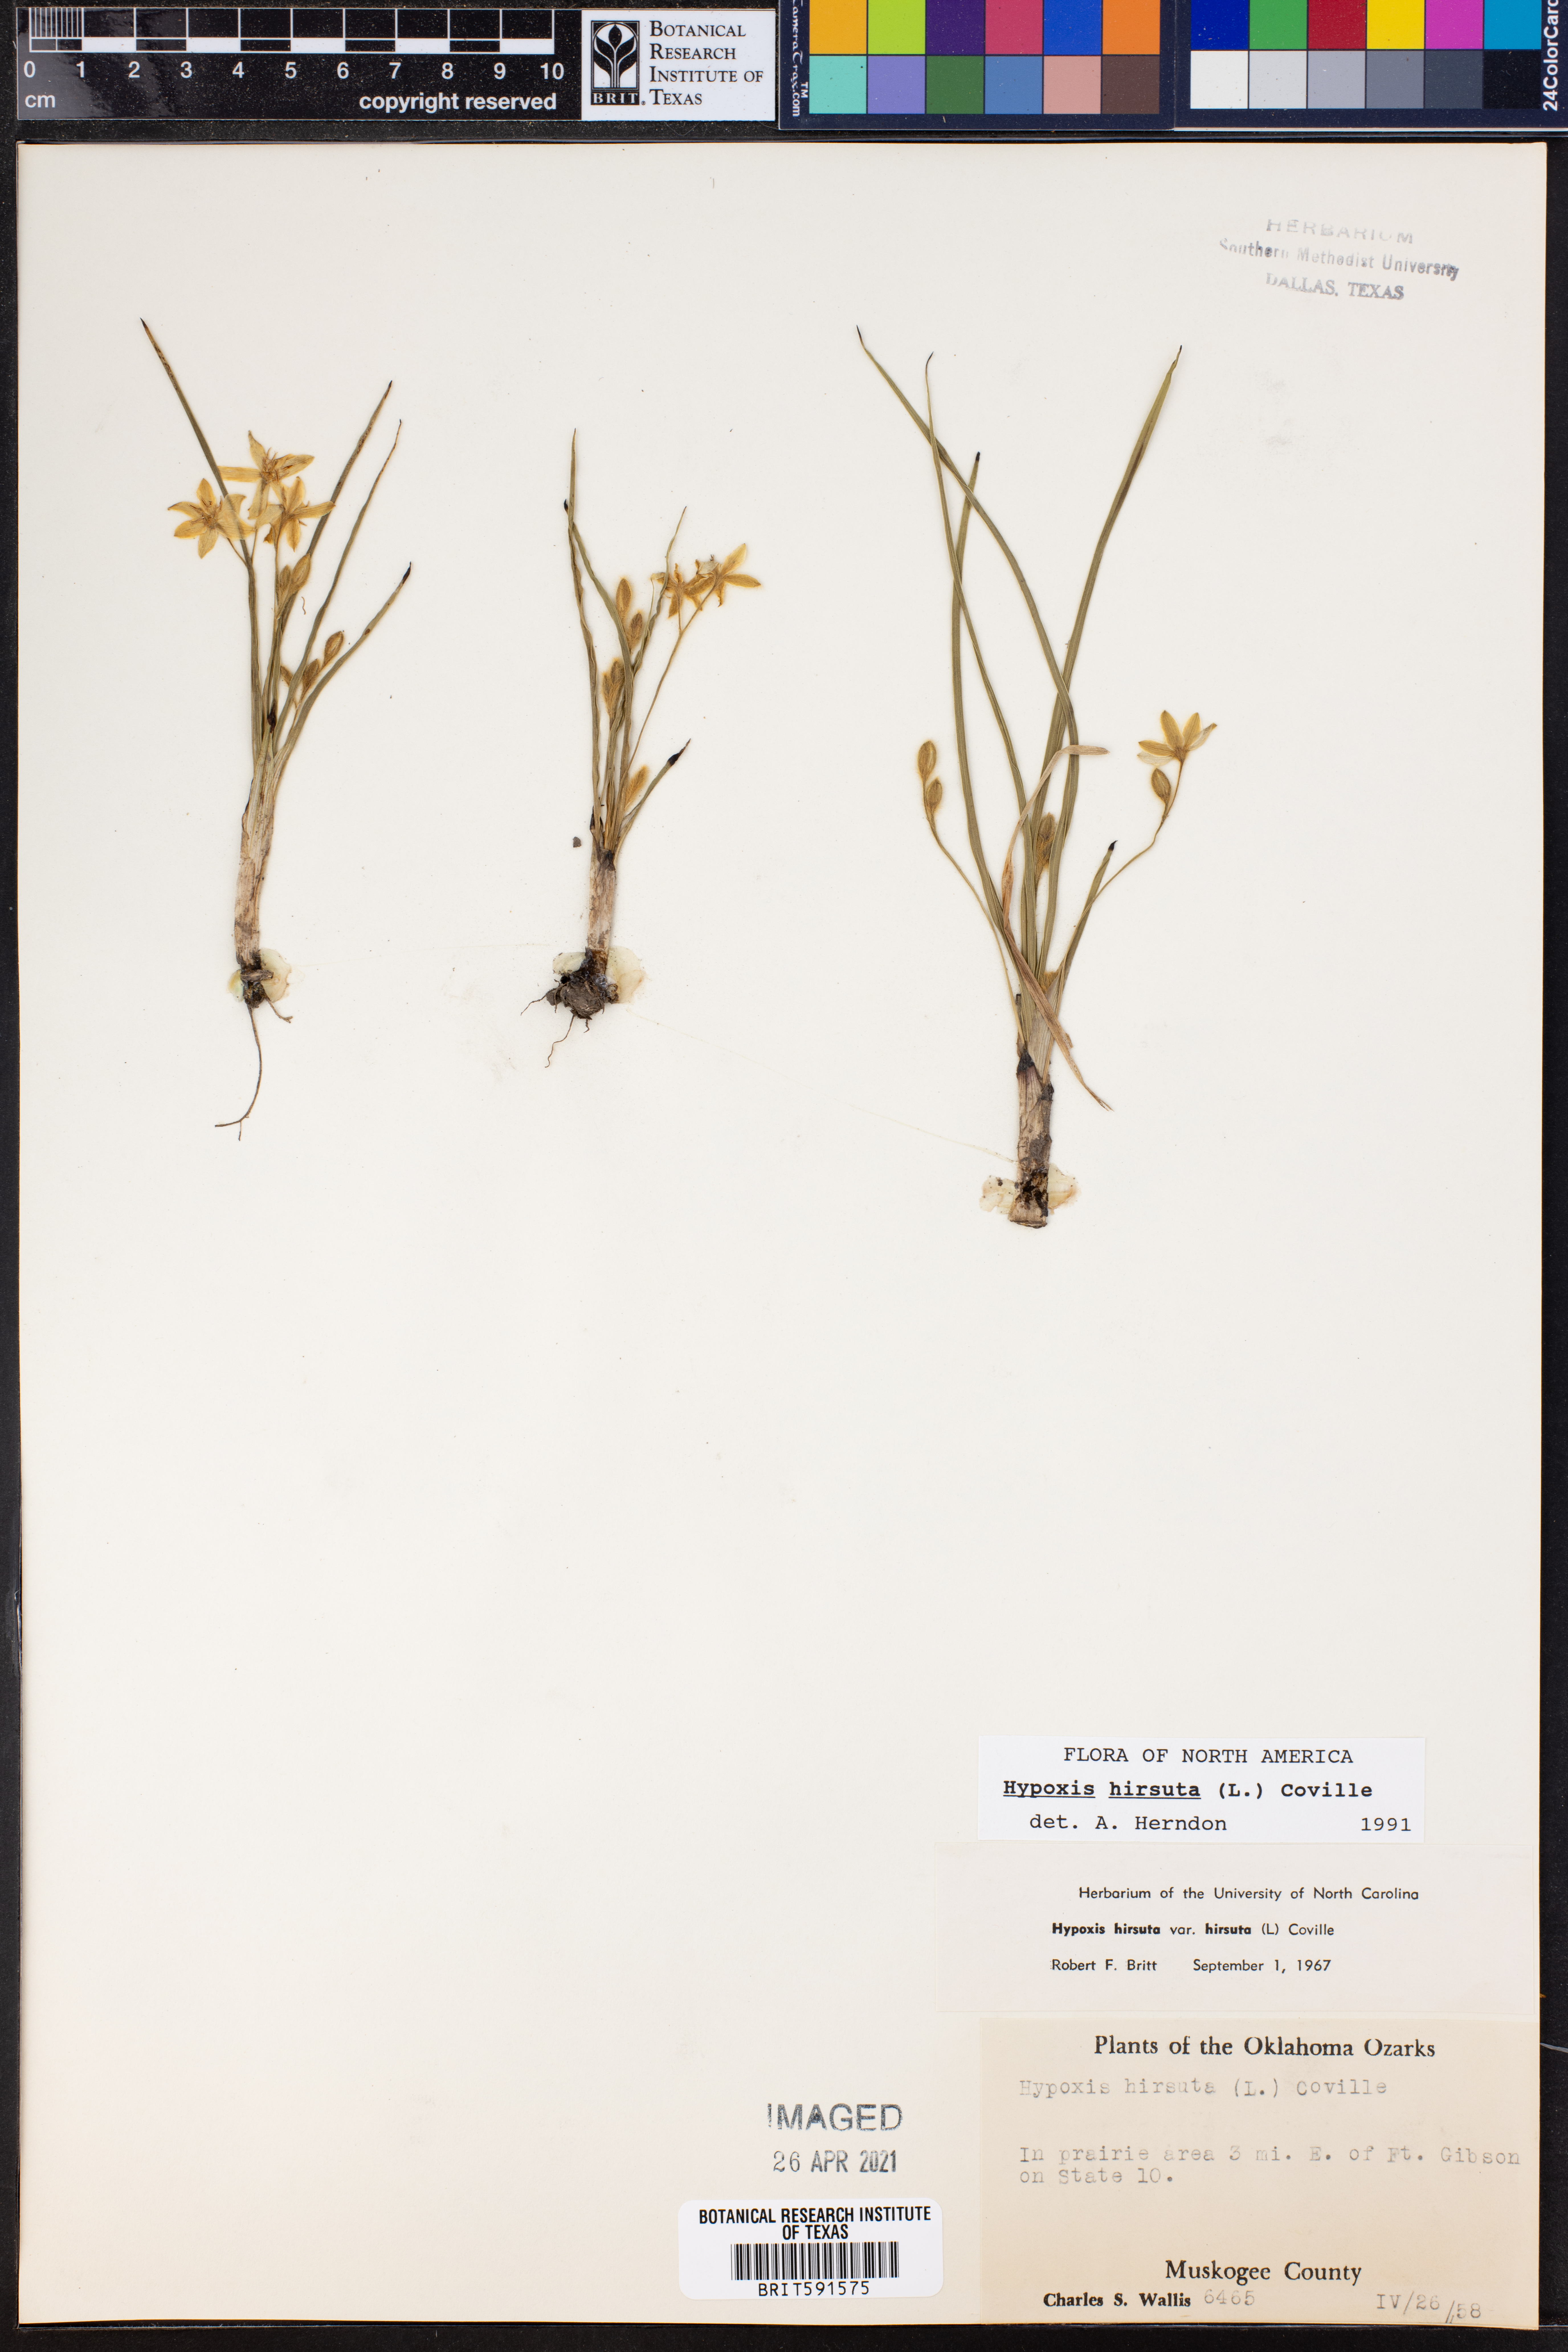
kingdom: Plantae
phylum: Tracheophyta
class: Liliopsida
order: Asparagales
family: Hypoxidaceae
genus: Hypoxis
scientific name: Hypoxis hirsuta
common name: Common goldstar
